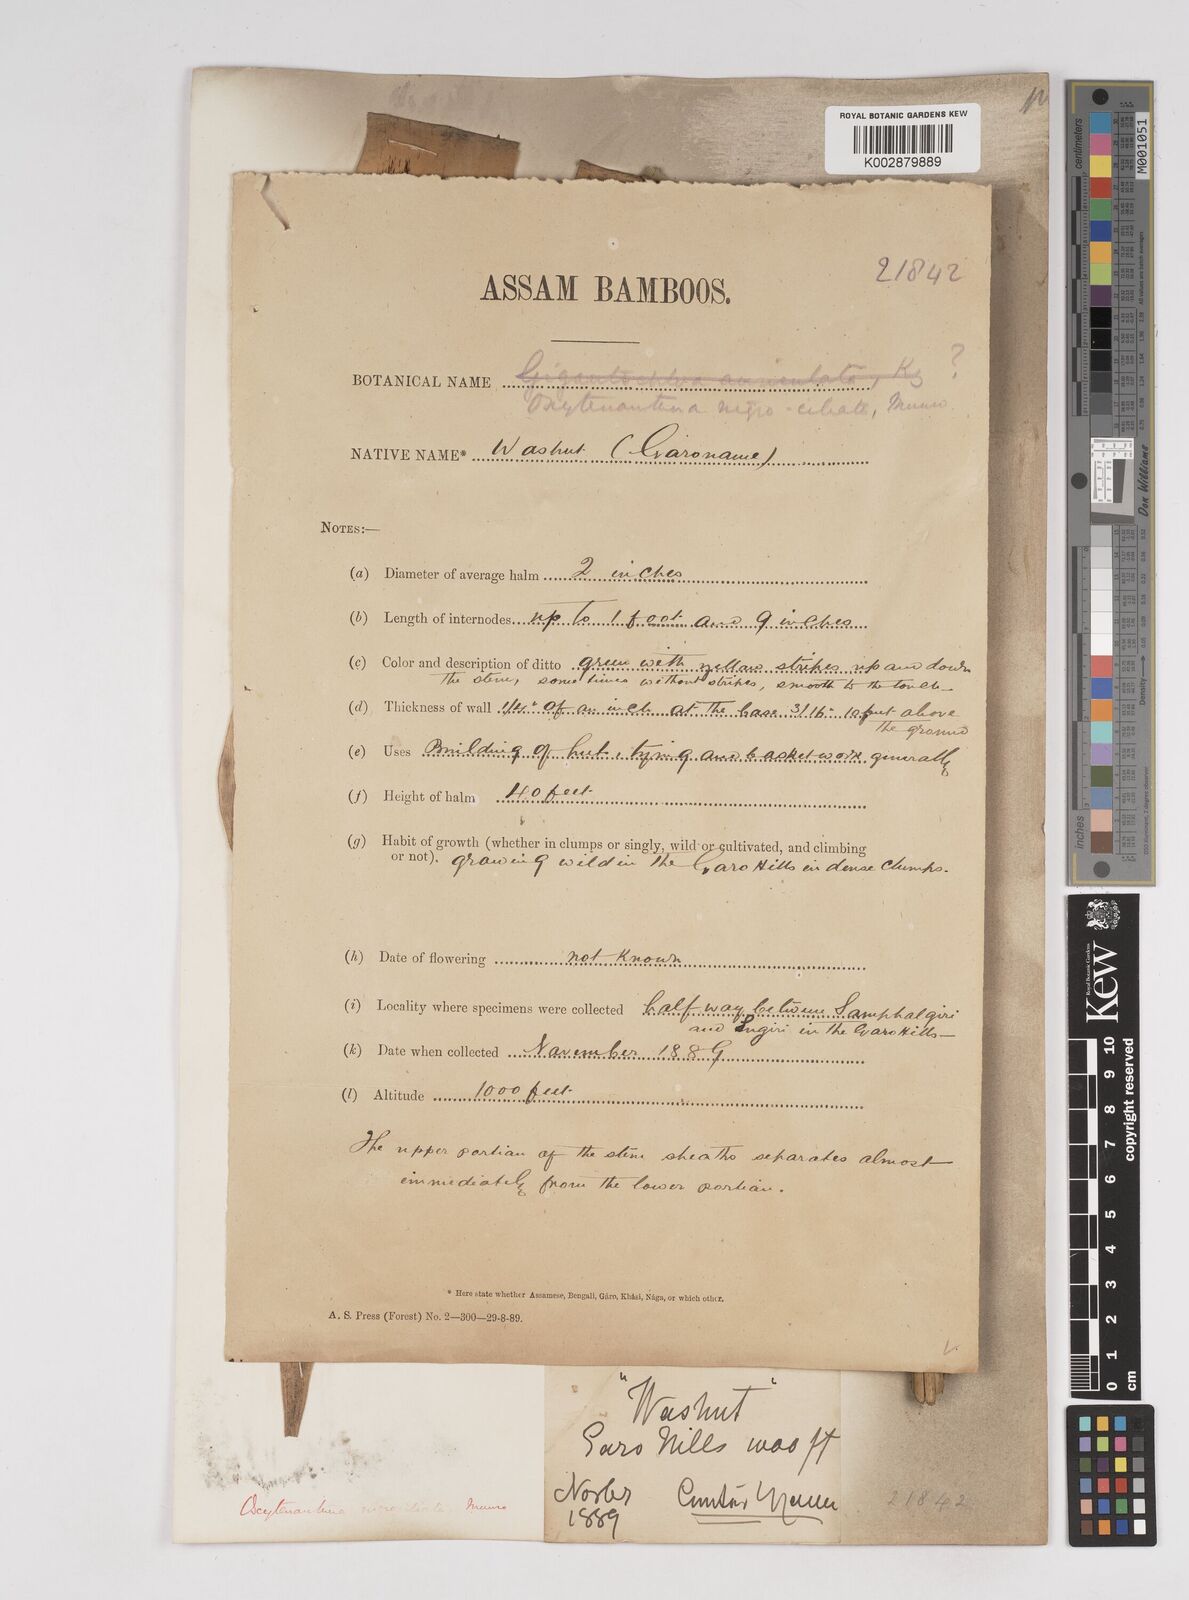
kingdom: Plantae
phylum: Tracheophyta
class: Liliopsida
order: Poales
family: Poaceae
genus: Gigantochloa
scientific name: Gigantochloa
